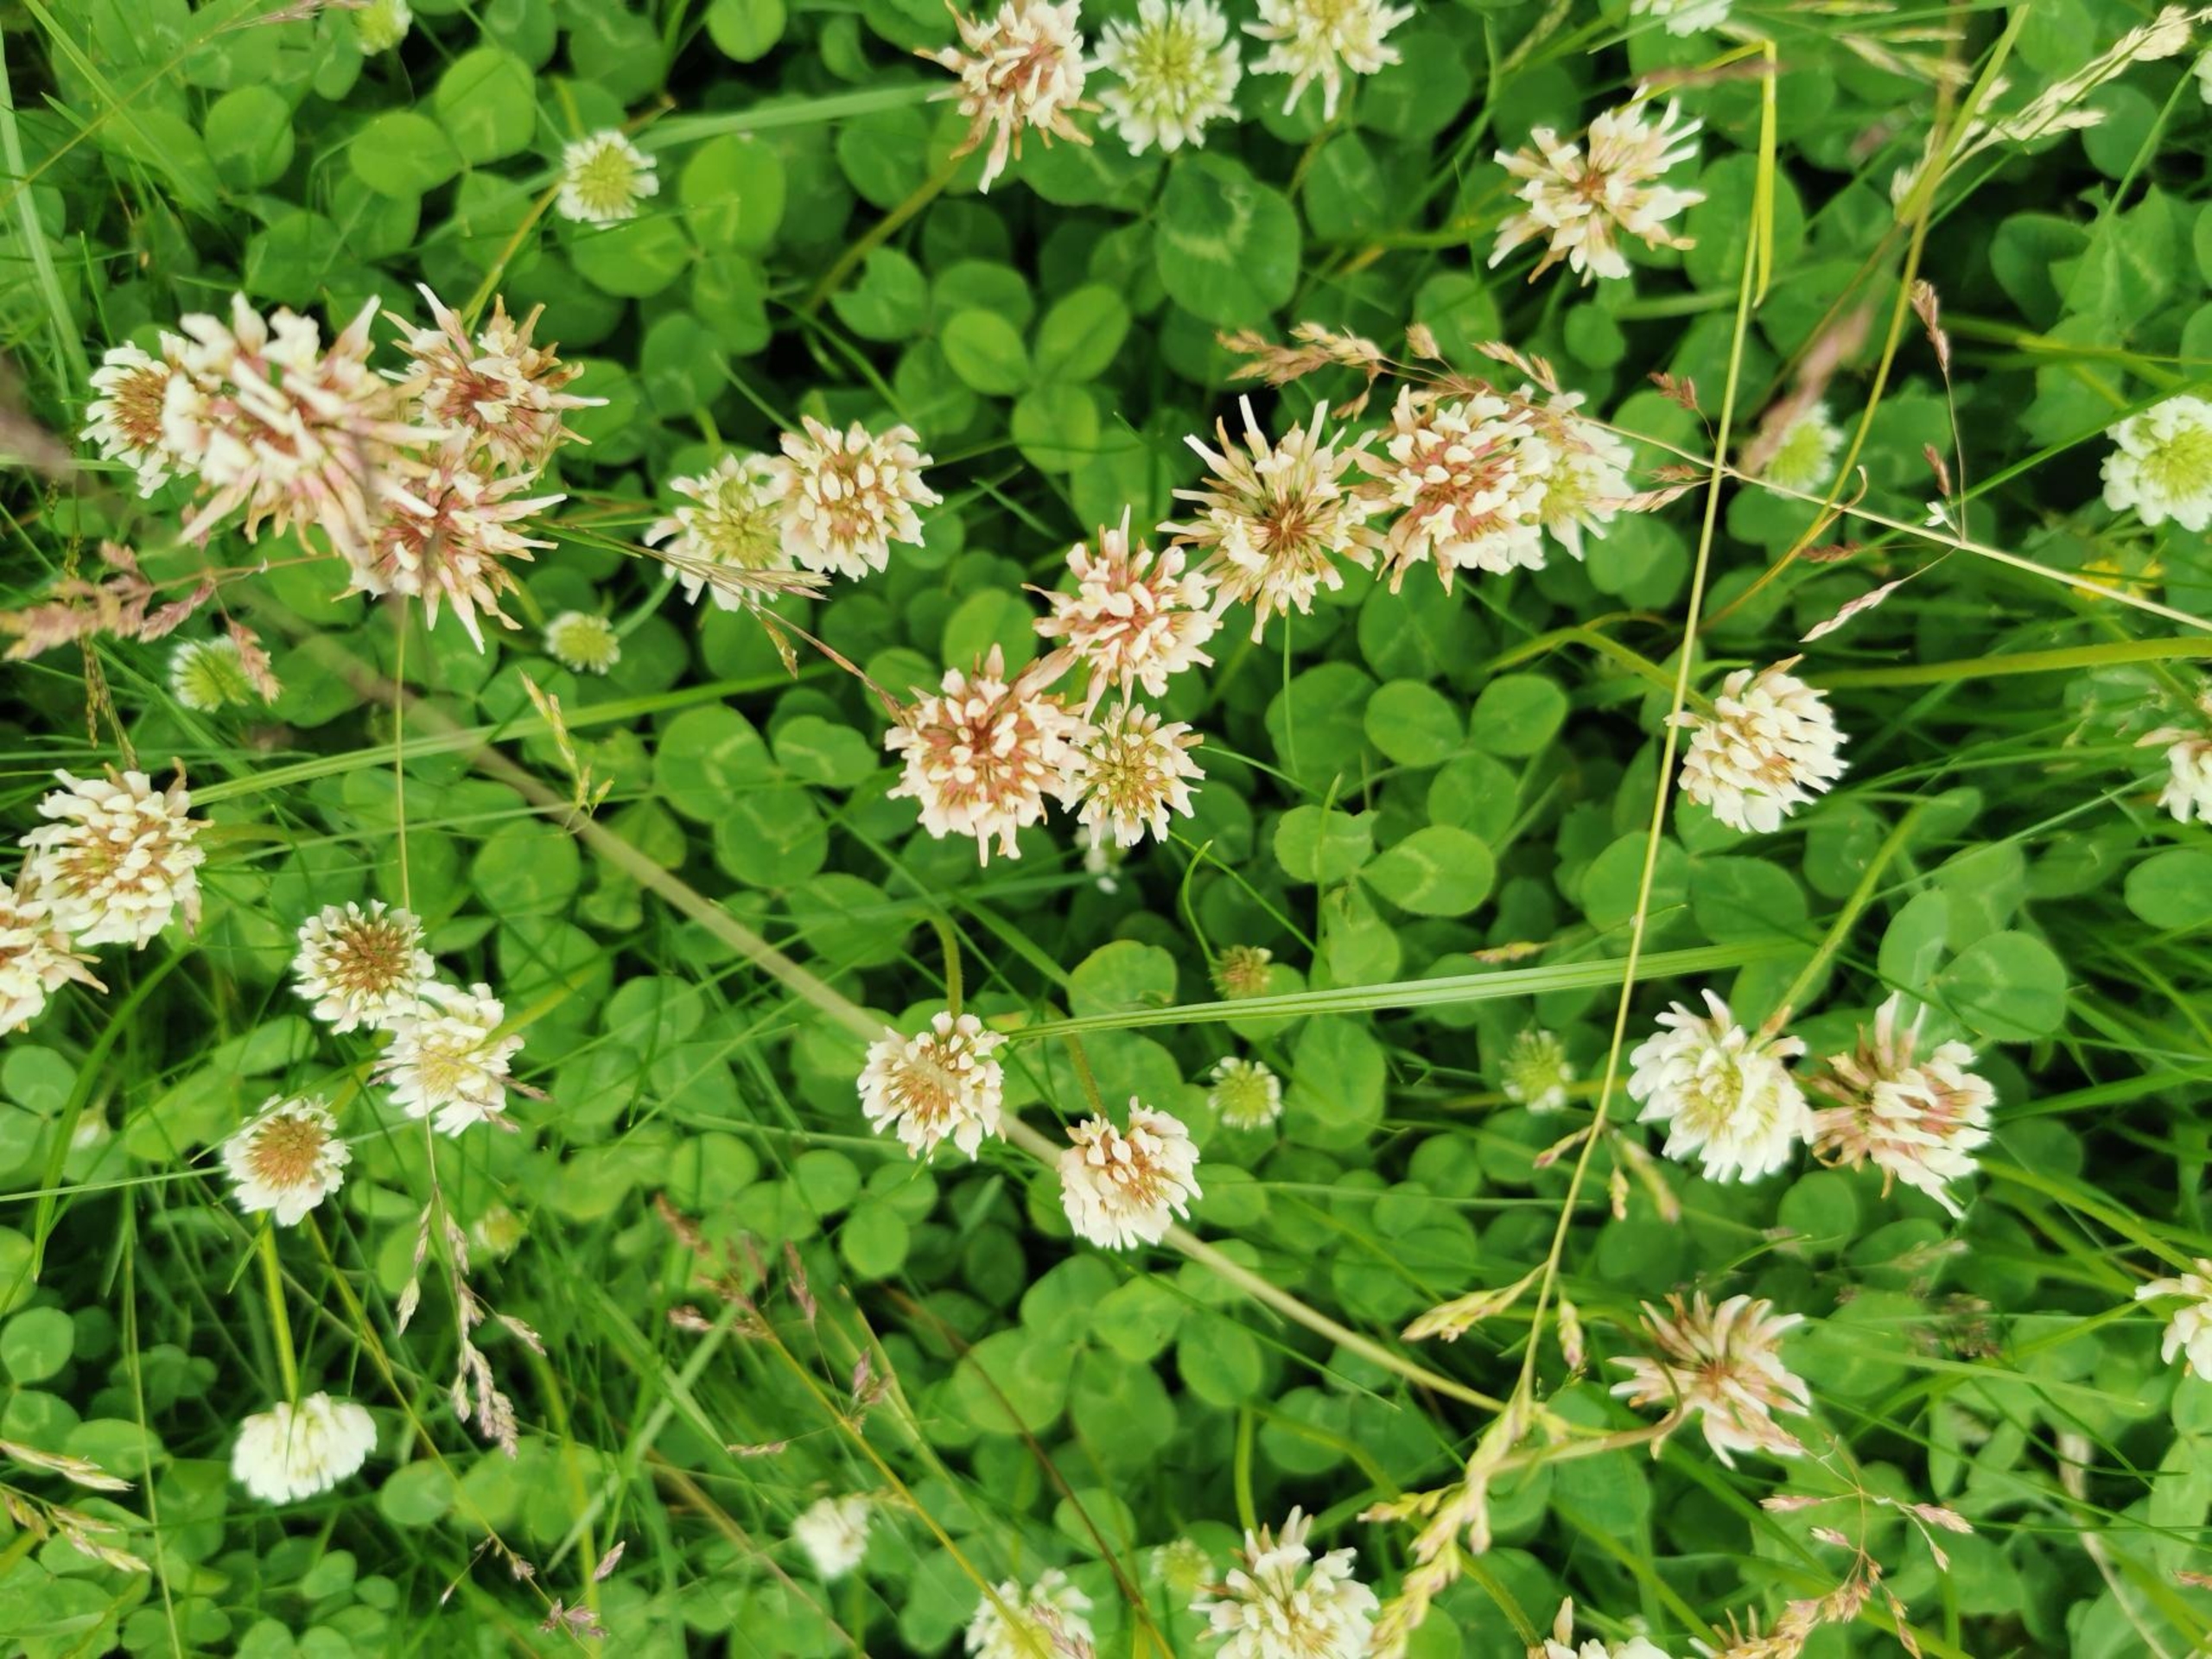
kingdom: Plantae
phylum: Tracheophyta
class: Magnoliopsida
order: Fabales
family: Fabaceae
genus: Trifolium
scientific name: Trifolium repens
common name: Hvid-kløver
